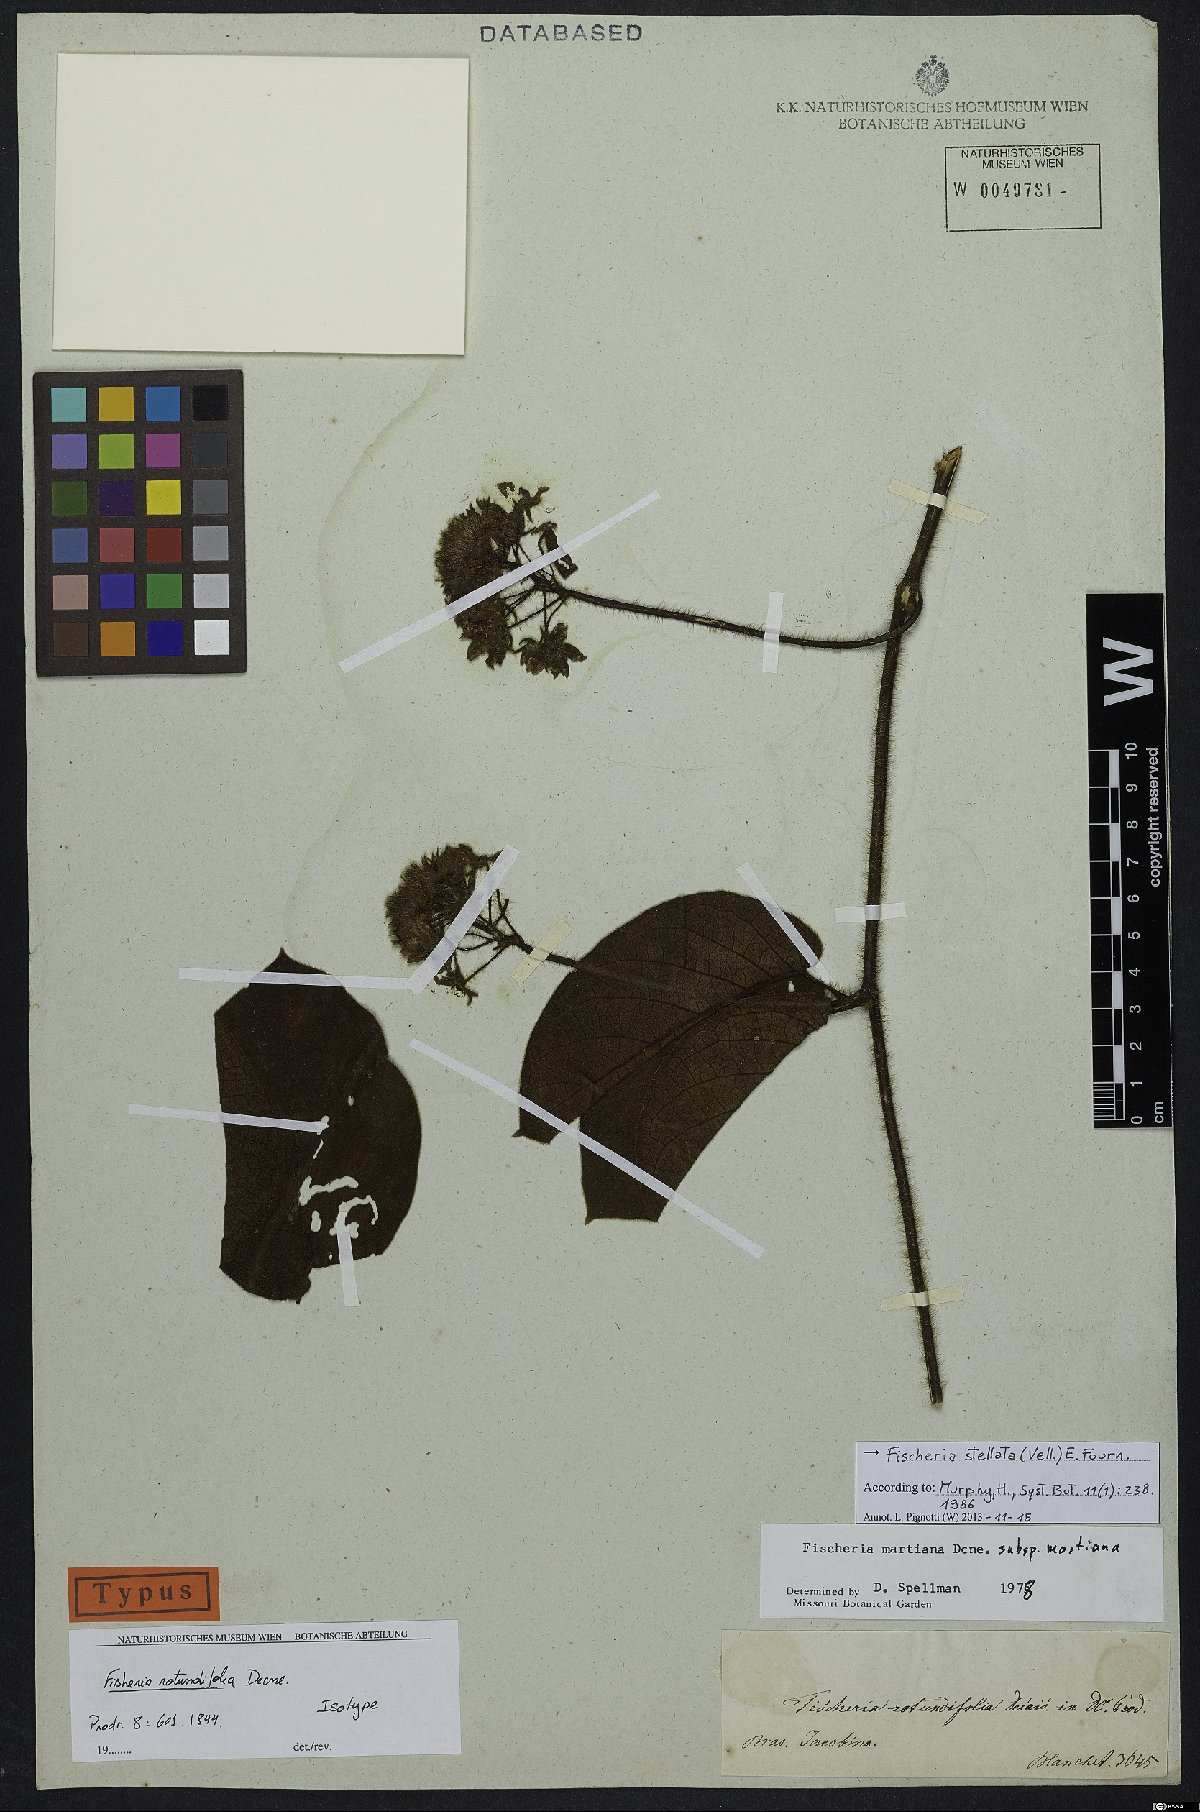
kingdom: Plantae
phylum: Tracheophyta
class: Magnoliopsida
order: Gentianales
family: Apocynaceae
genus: Fischeria
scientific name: Fischeria stellata
